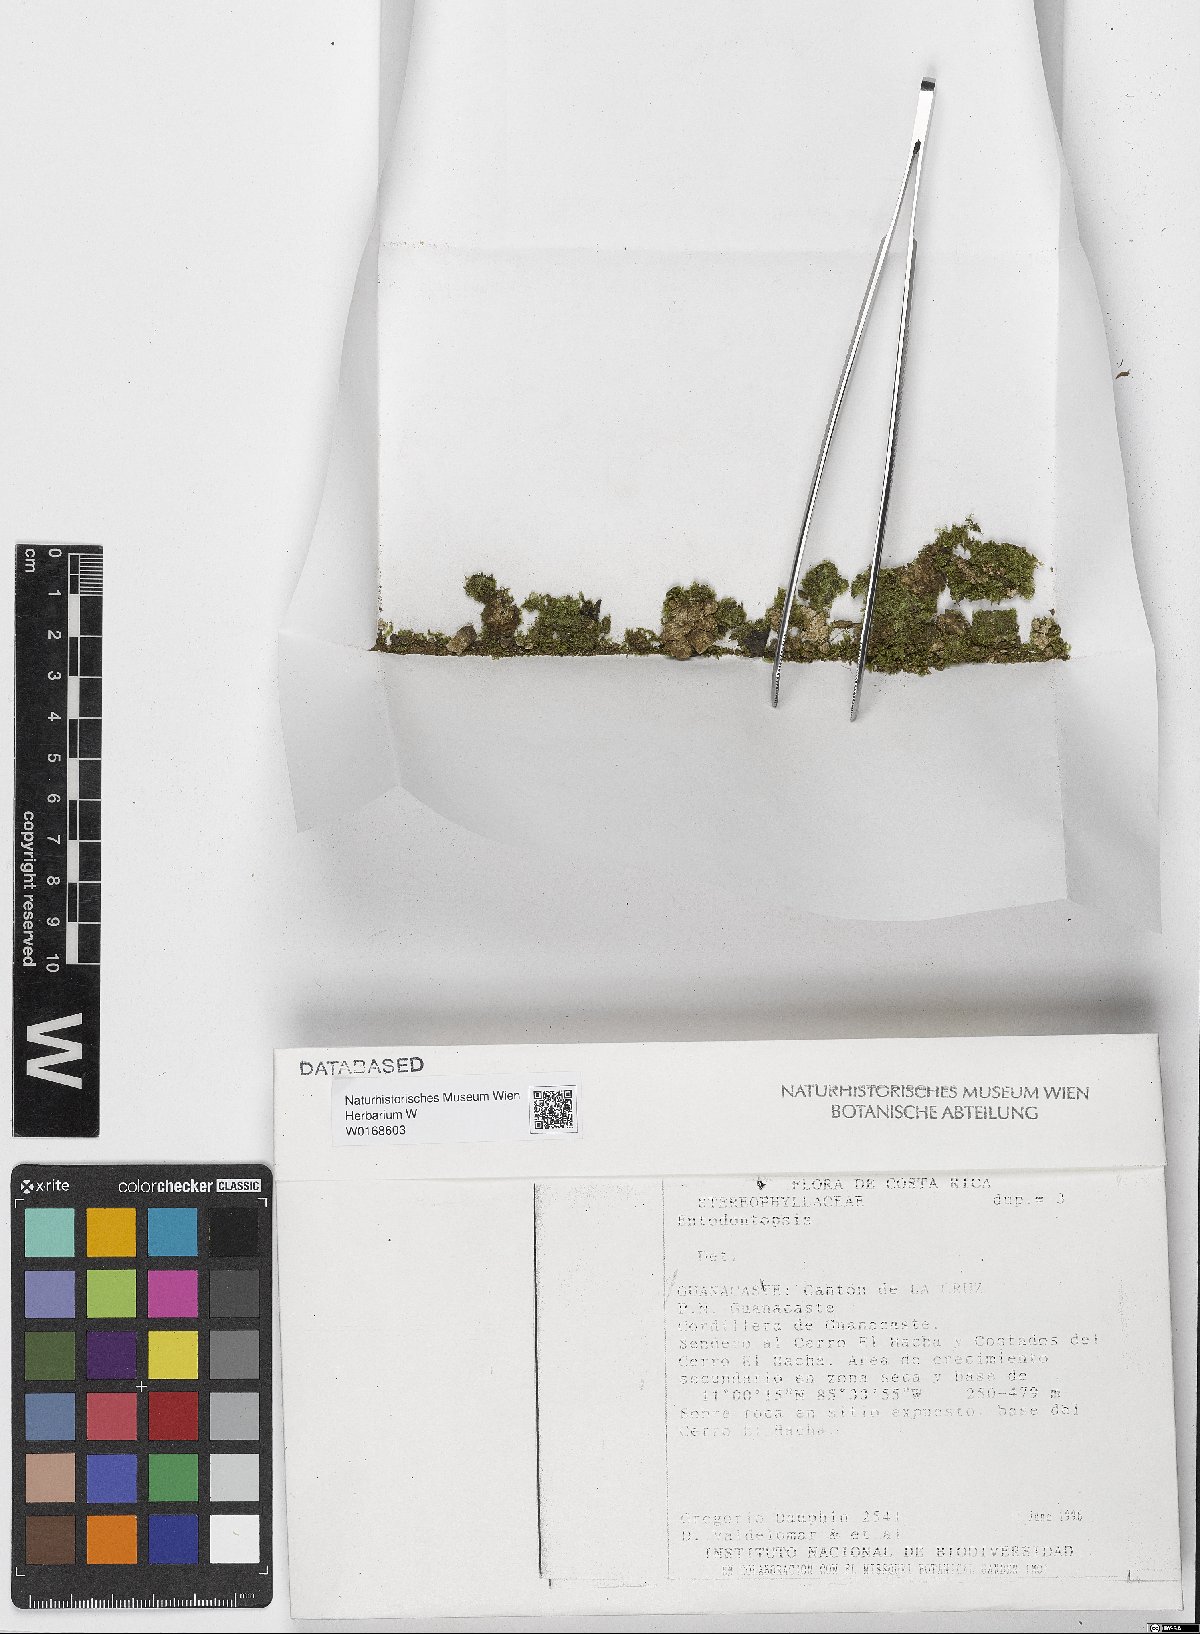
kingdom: Plantae
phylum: Bryophyta
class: Bryopsida
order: Hypnales
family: Stereophyllaceae
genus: Entodontopsis
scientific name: Entodontopsis
